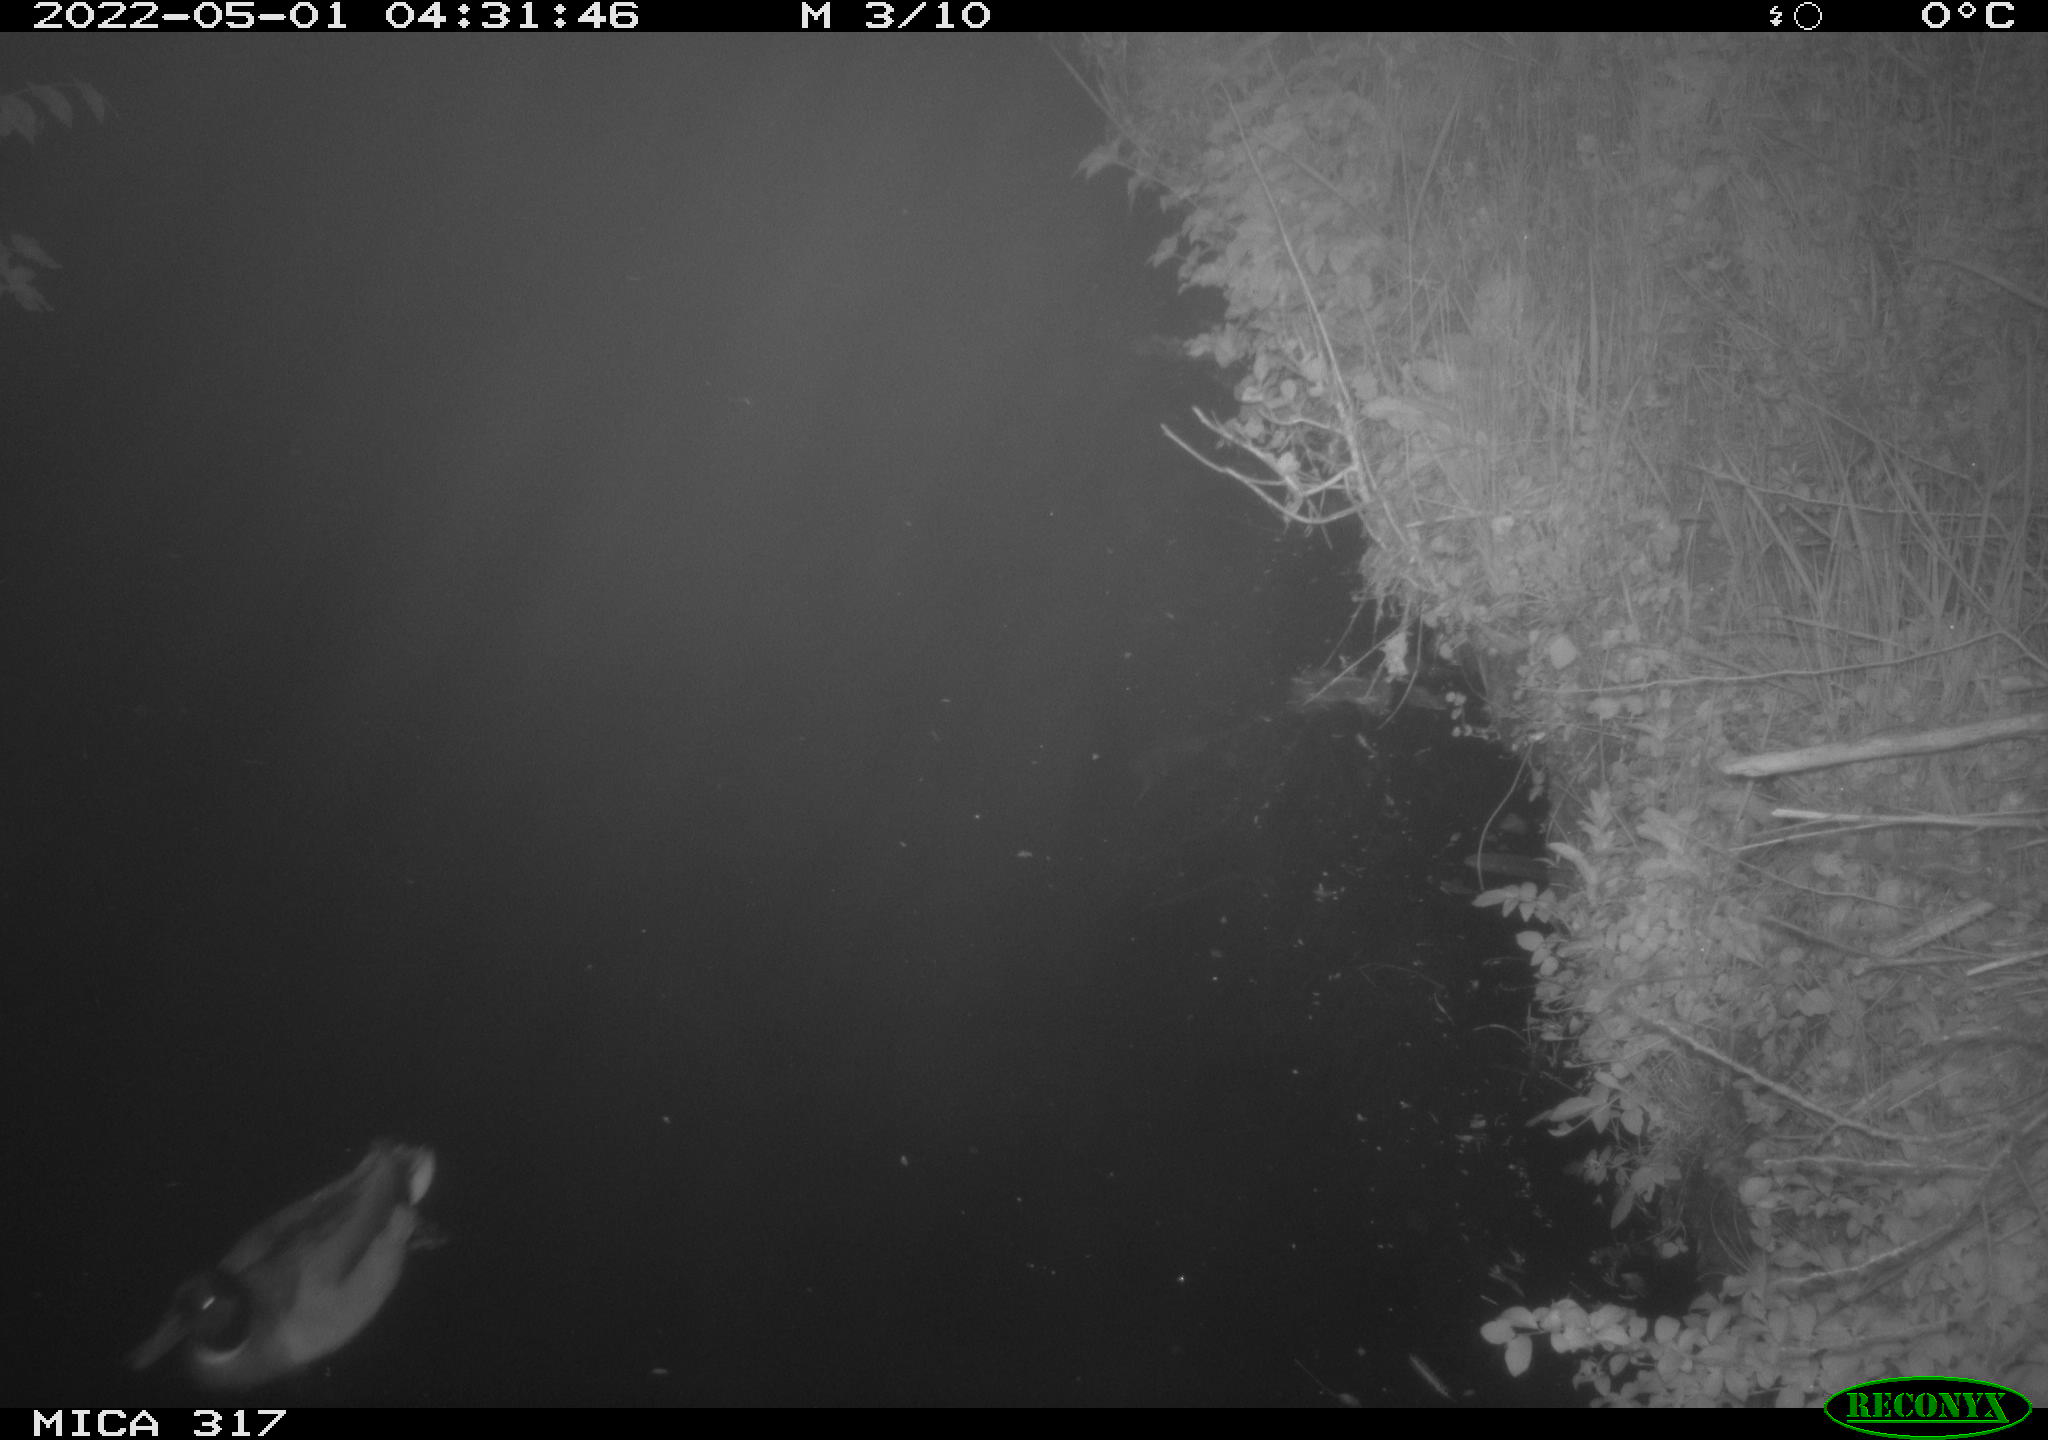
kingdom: Animalia
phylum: Chordata
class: Aves
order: Anseriformes
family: Anatidae
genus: Anas
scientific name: Anas platyrhynchos
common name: Mallard
